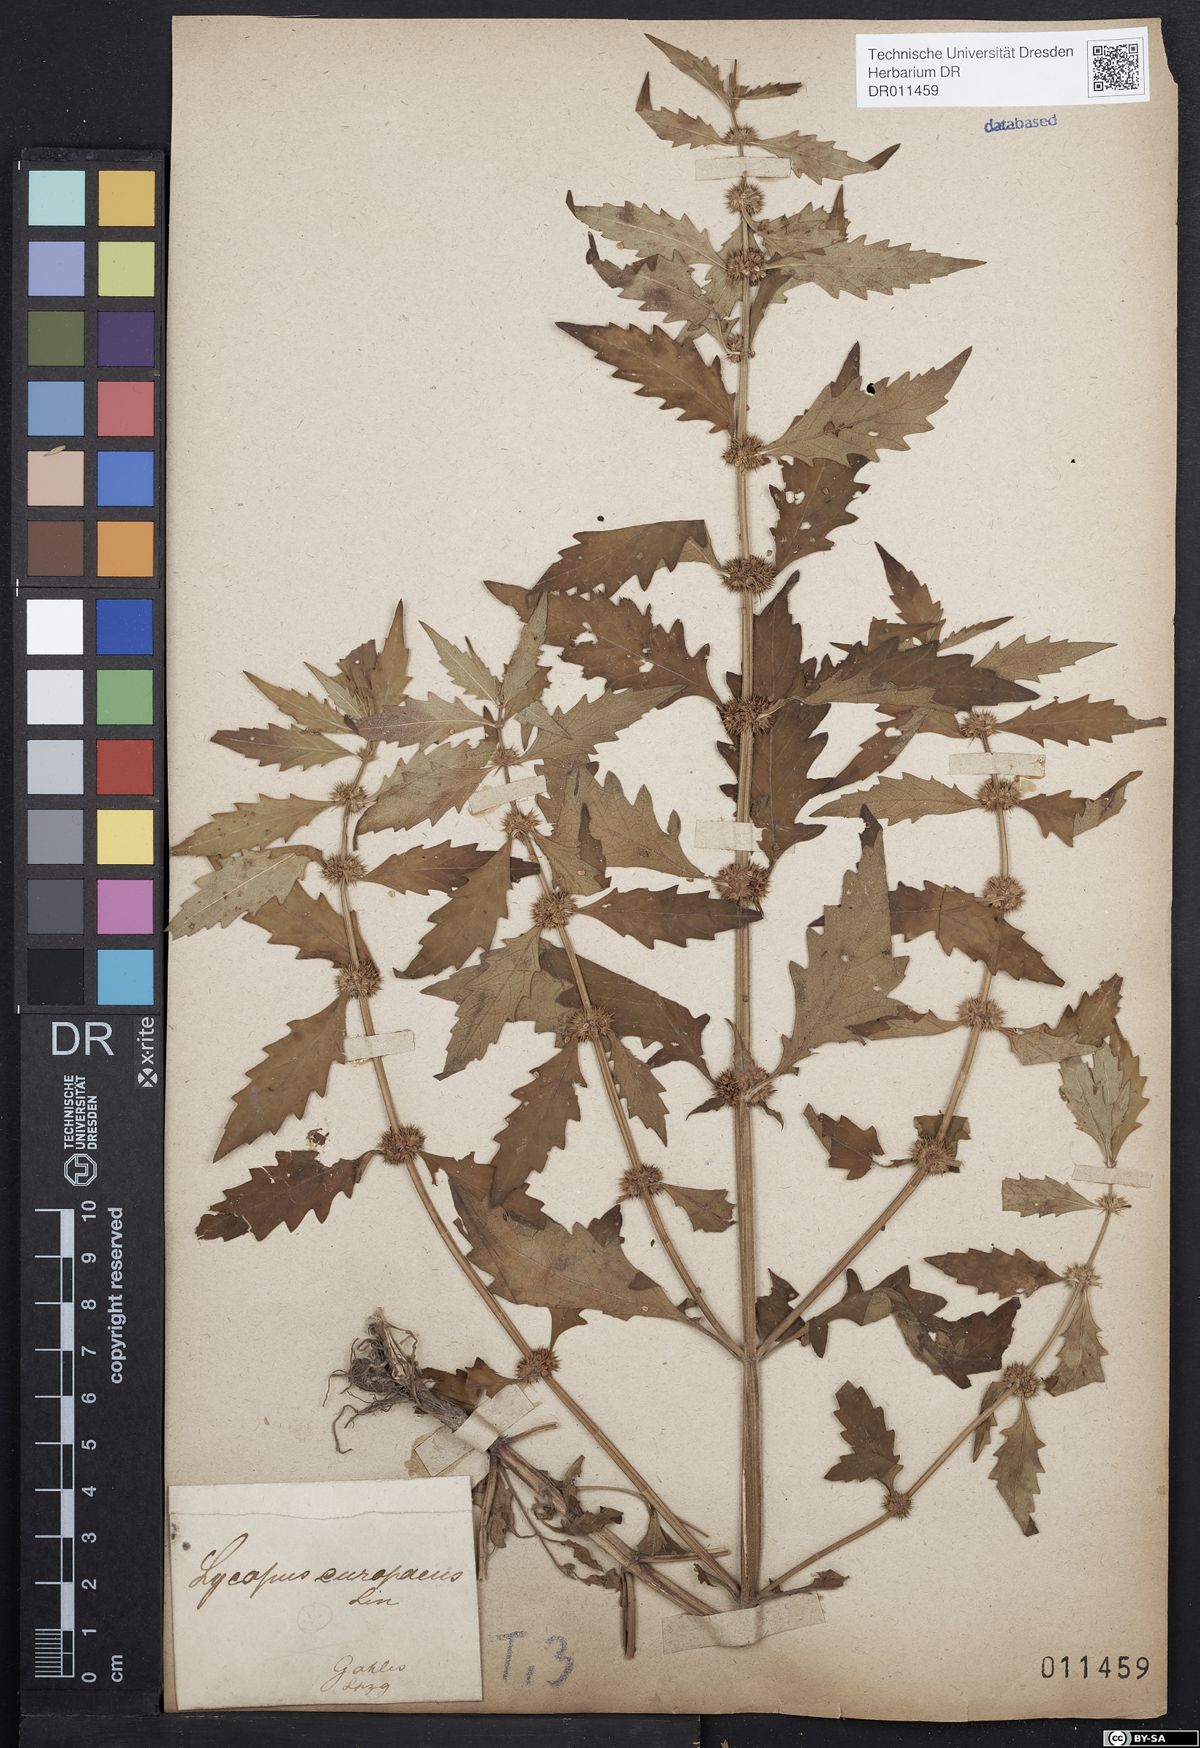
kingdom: Plantae
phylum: Tracheophyta
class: Magnoliopsida
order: Lamiales
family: Lamiaceae
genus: Lycopus
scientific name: Lycopus europaeus
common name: European bugleweed
